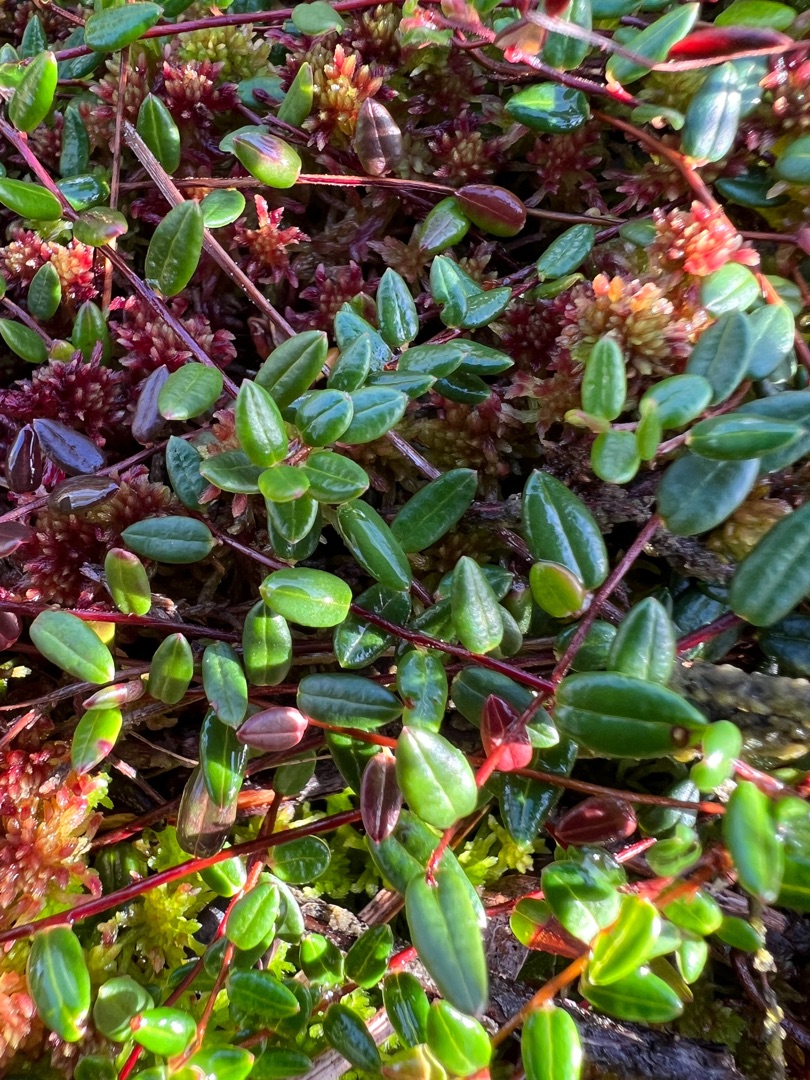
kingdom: Plantae
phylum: Tracheophyta
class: Magnoliopsida
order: Ericales
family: Ericaceae
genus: Vaccinium
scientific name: Vaccinium oxycoccos
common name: Tranebær
